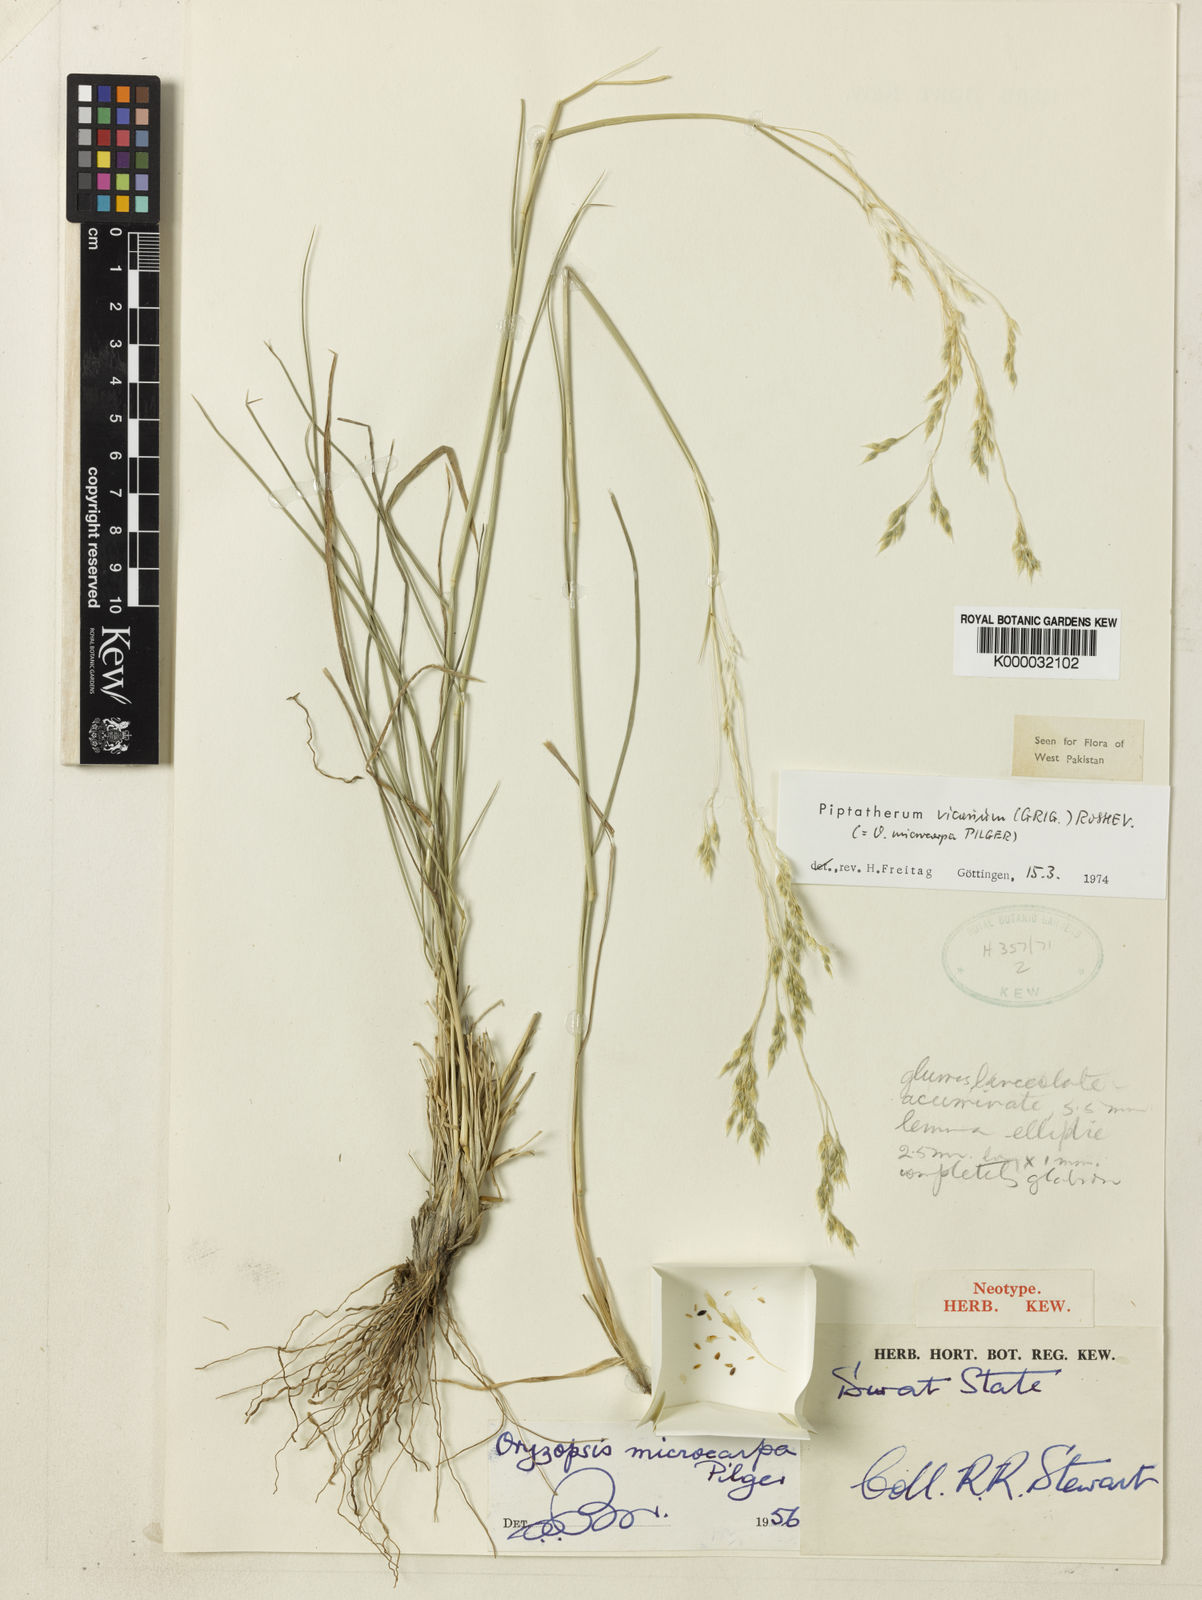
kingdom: Plantae
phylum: Tracheophyta
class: Liliopsida
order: Poales
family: Poaceae
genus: Piptatherum
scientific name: Piptatherum microcarpum
